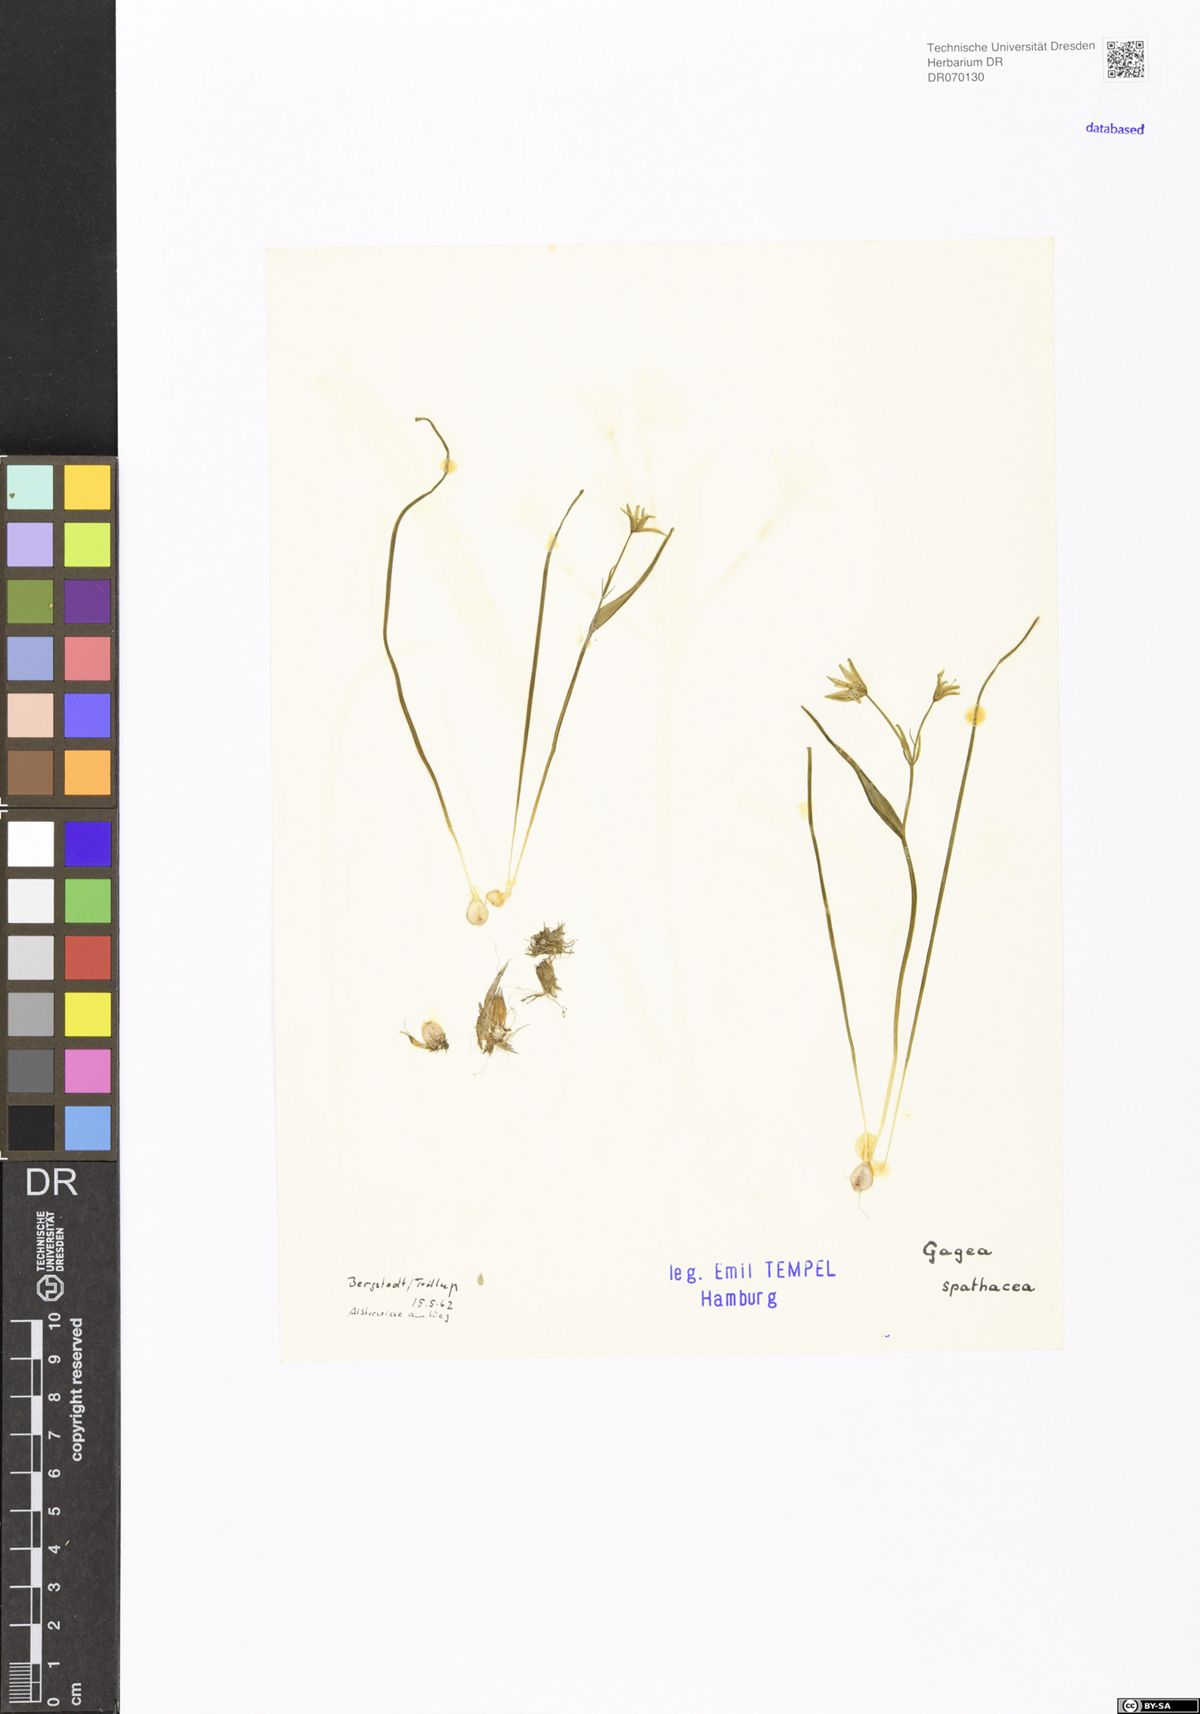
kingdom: Plantae
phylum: Tracheophyta
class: Liliopsida
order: Liliales
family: Liliaceae
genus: Gagea
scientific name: Gagea spathacea
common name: Belgian gagea
